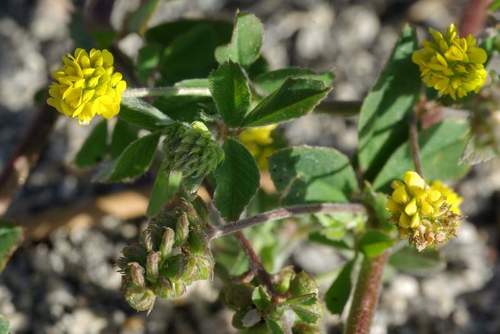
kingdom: Plantae
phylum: Tracheophyta
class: Magnoliopsida
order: Fabales
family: Fabaceae
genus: Medicago
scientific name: Medicago lupulina
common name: Black medick
